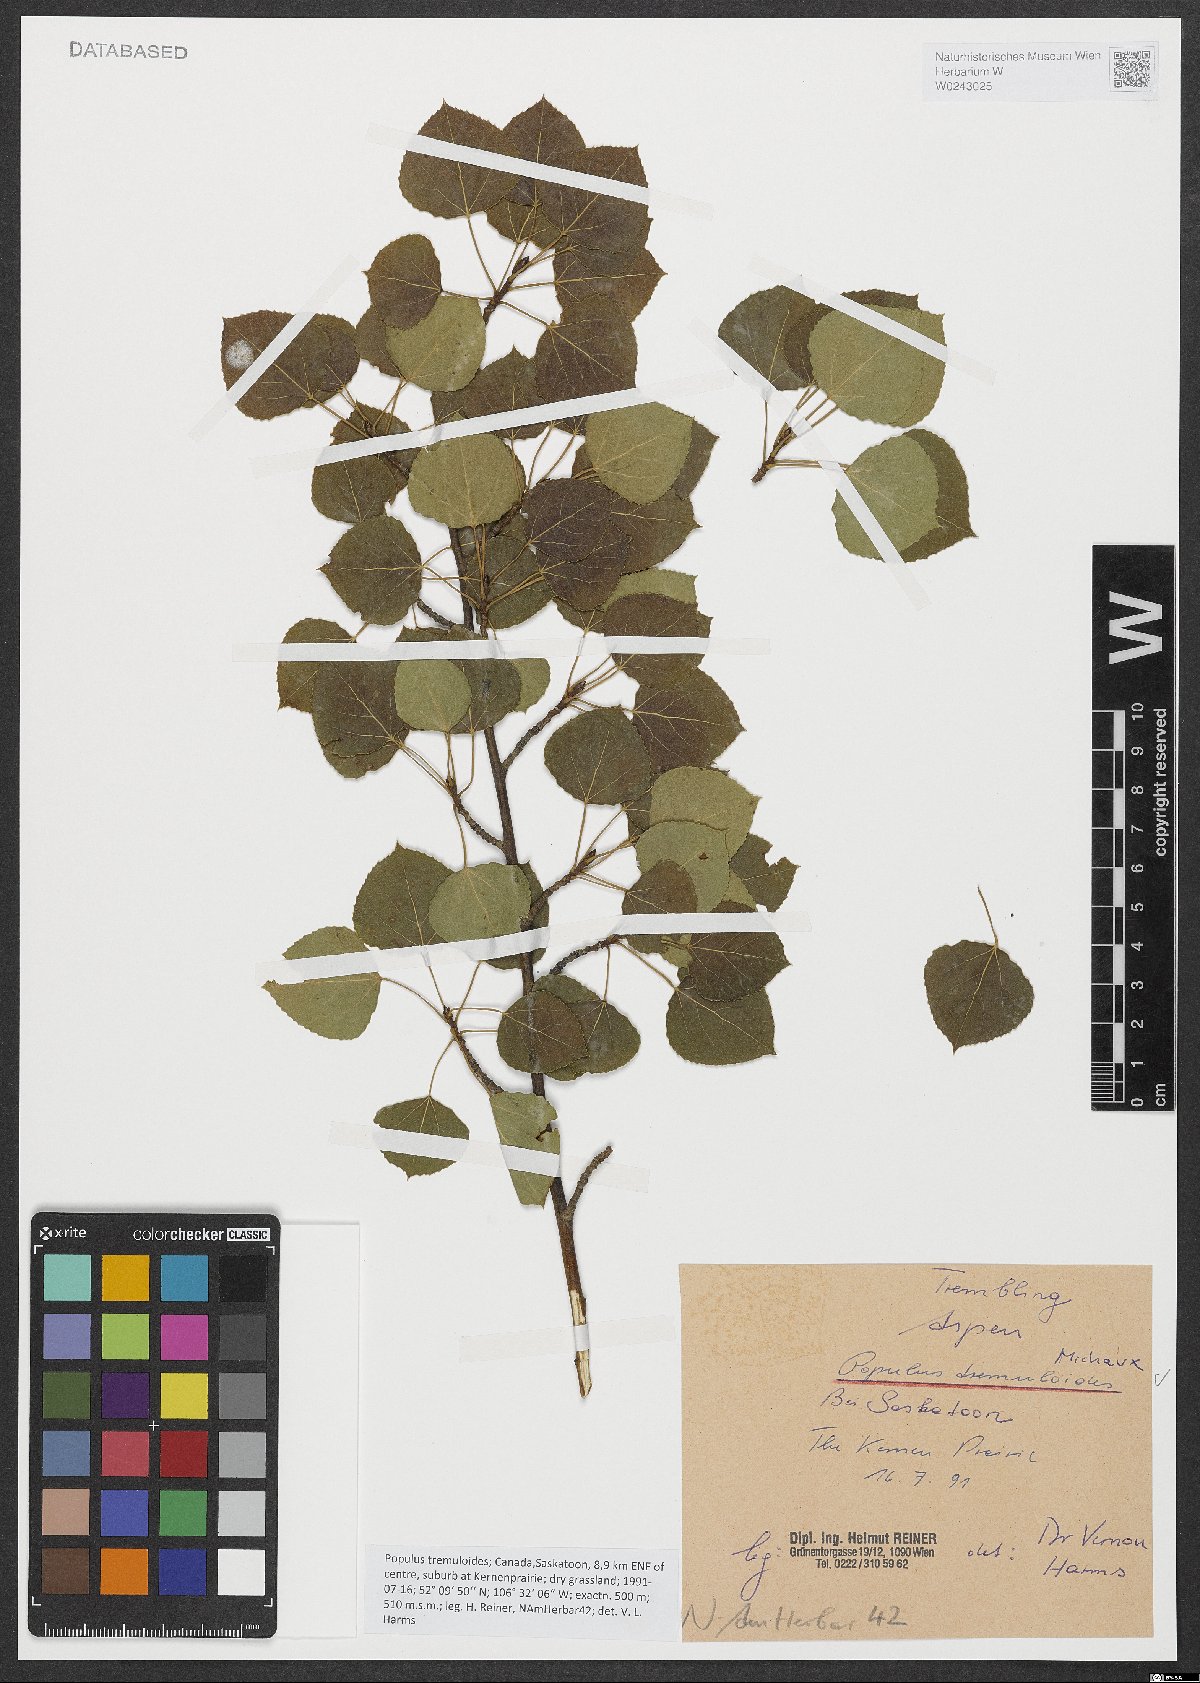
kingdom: Plantae
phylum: Tracheophyta
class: Magnoliopsida
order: Malpighiales
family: Salicaceae
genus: Populus
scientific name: Populus tremuloides
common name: Quaking aspen
